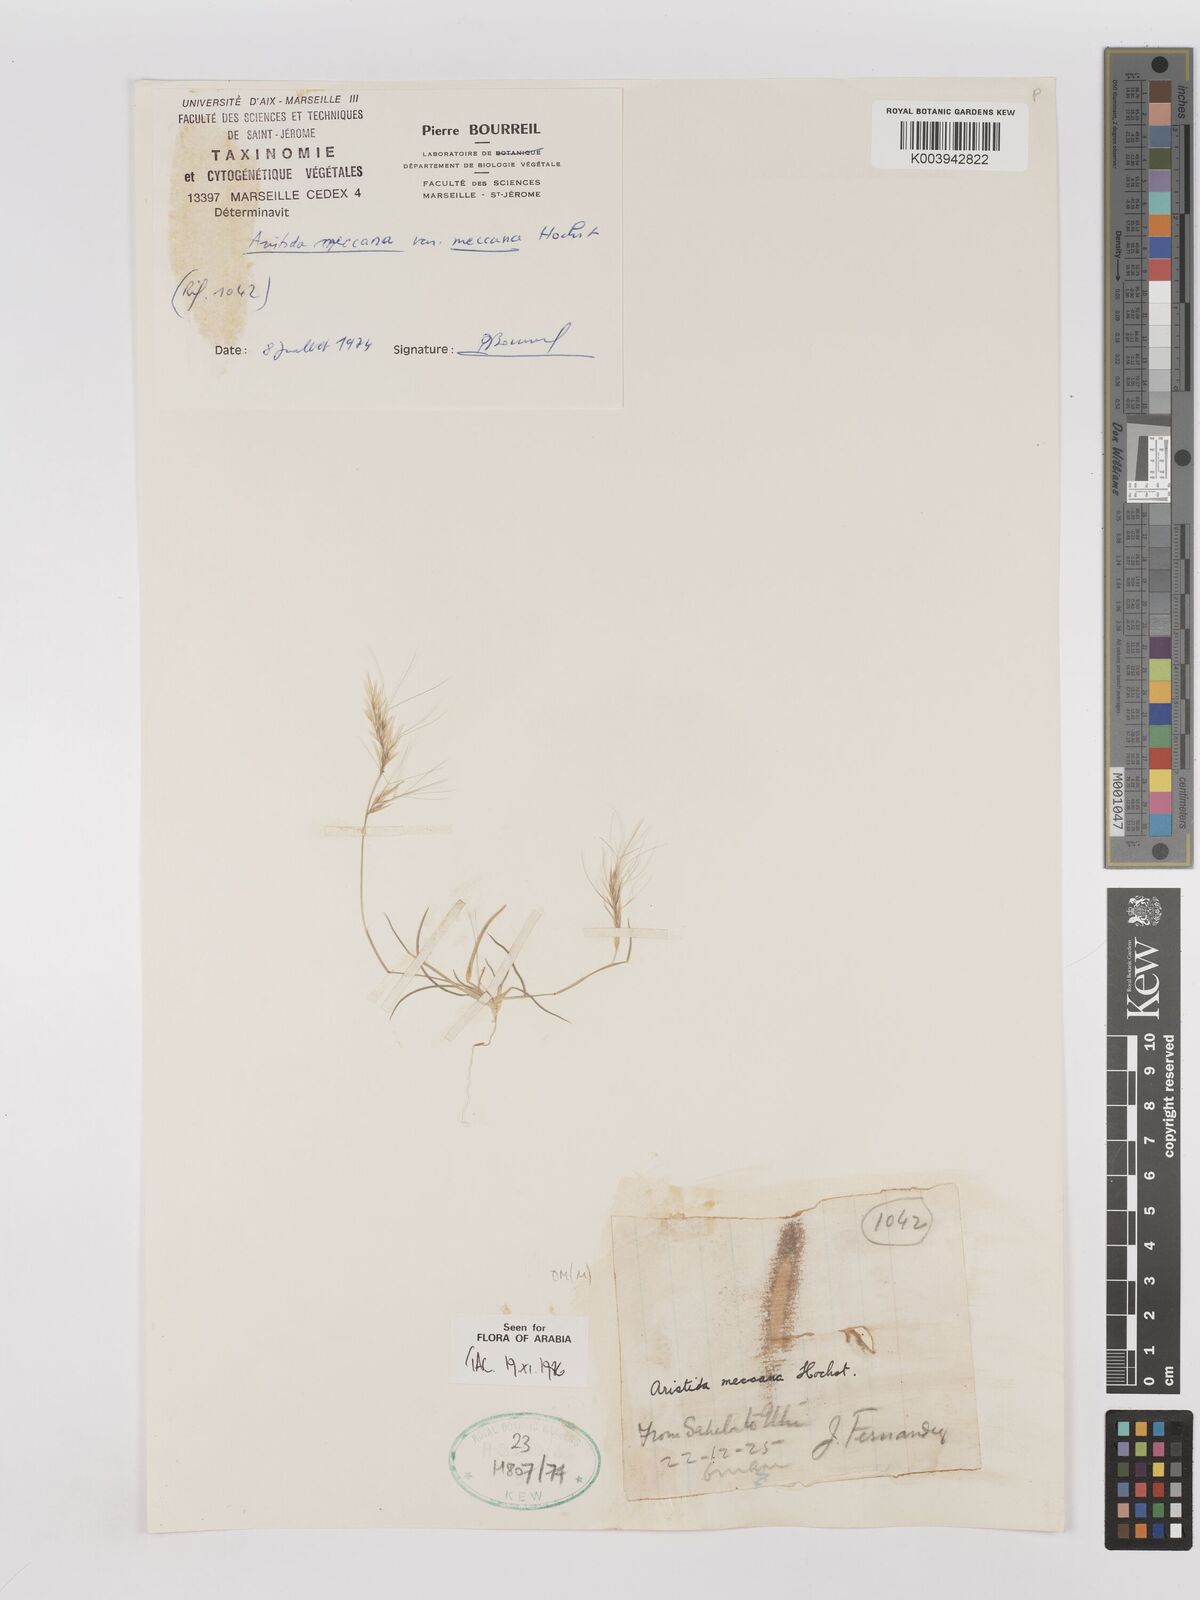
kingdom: Plantae
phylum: Tracheophyta
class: Liliopsida
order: Poales
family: Poaceae
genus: Aristida
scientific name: Aristida mutabilis
